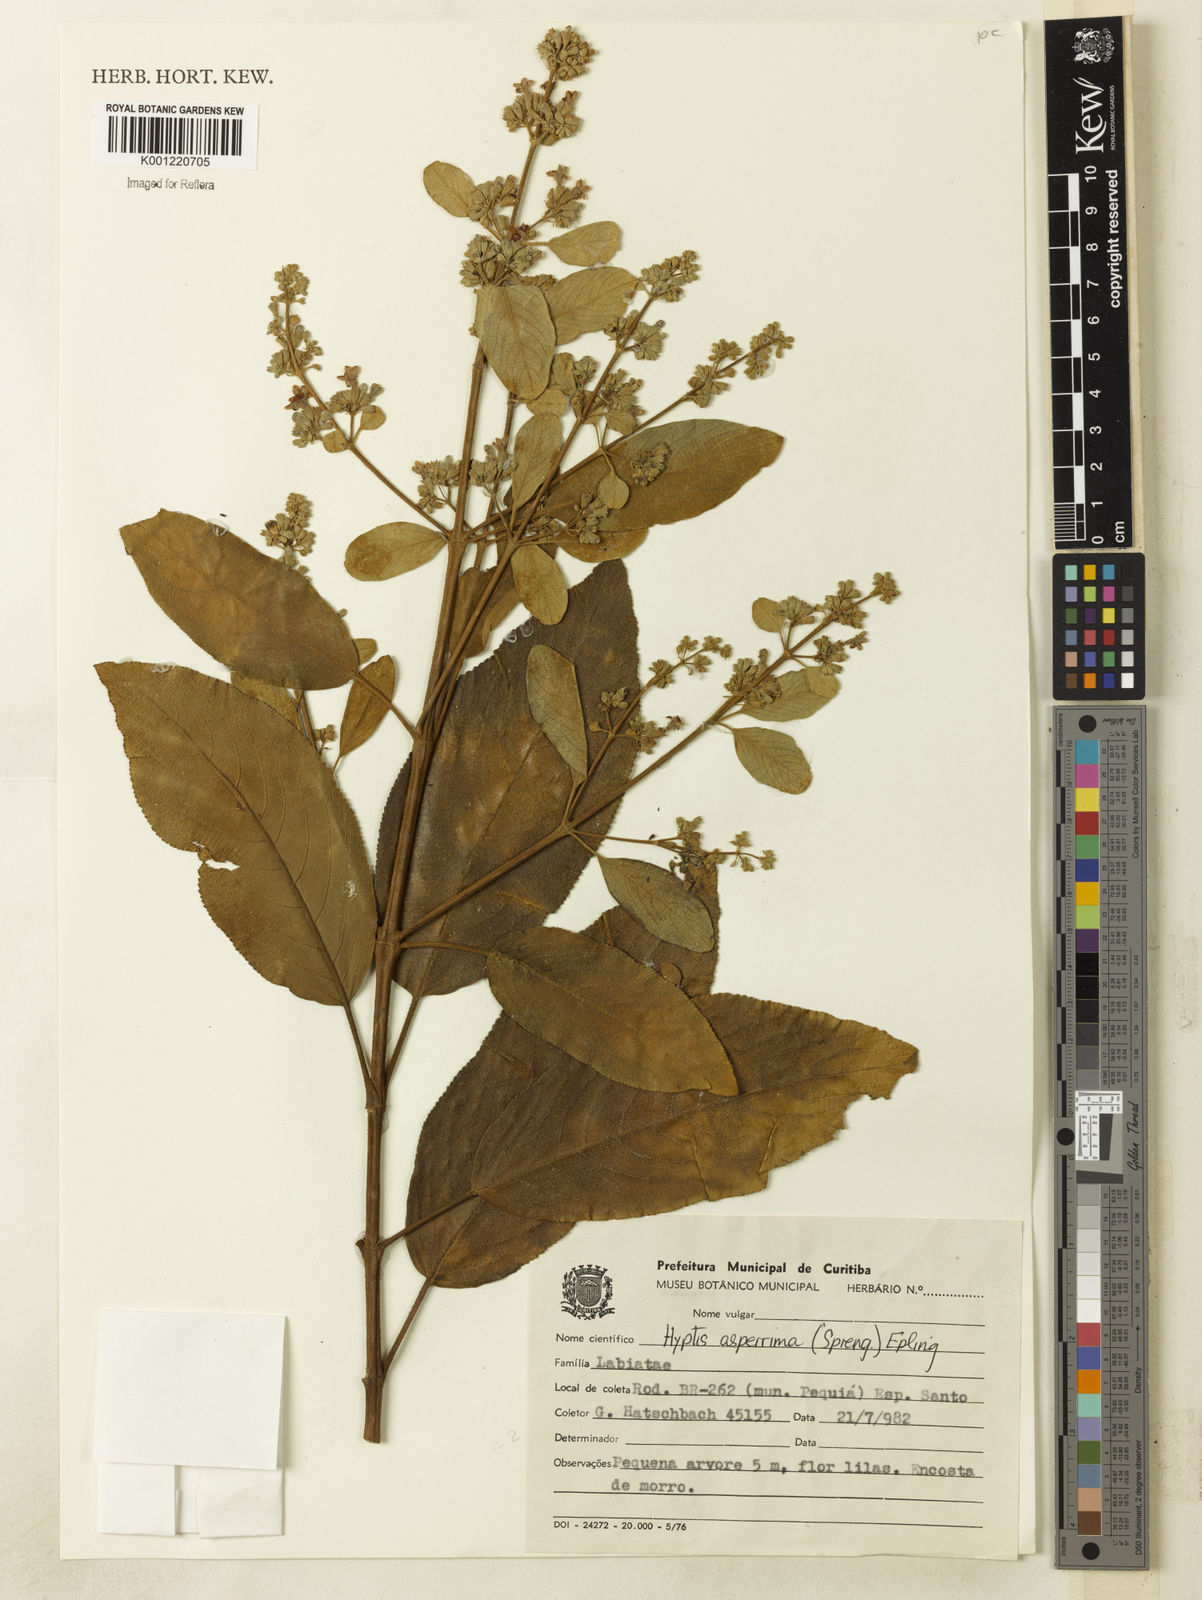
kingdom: Plantae
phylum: Tracheophyta
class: Magnoliopsida
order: Lamiales
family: Lamiaceae
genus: Hyptidendron
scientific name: Hyptidendron asperrimum
